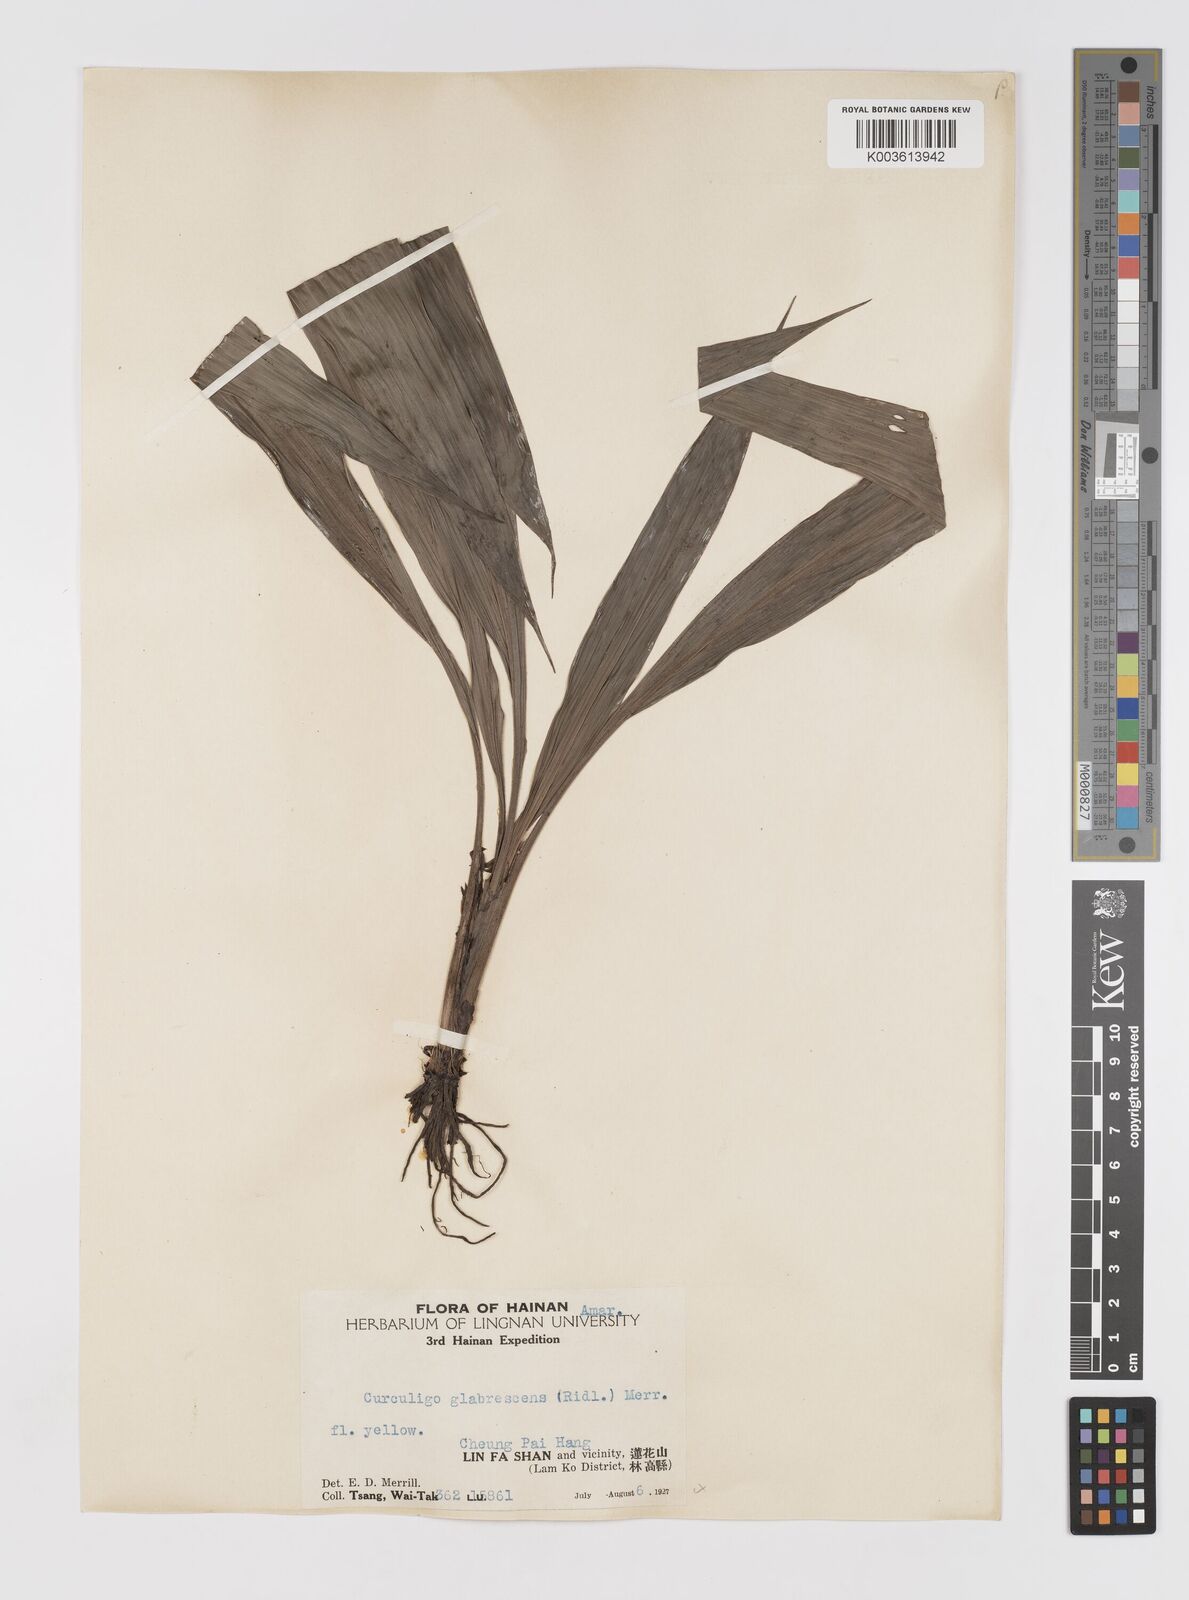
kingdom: Plantae
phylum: Tracheophyta
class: Liliopsida
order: Asparagales
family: Hypoxidaceae
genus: Curculigo
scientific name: Curculigo latifolia
